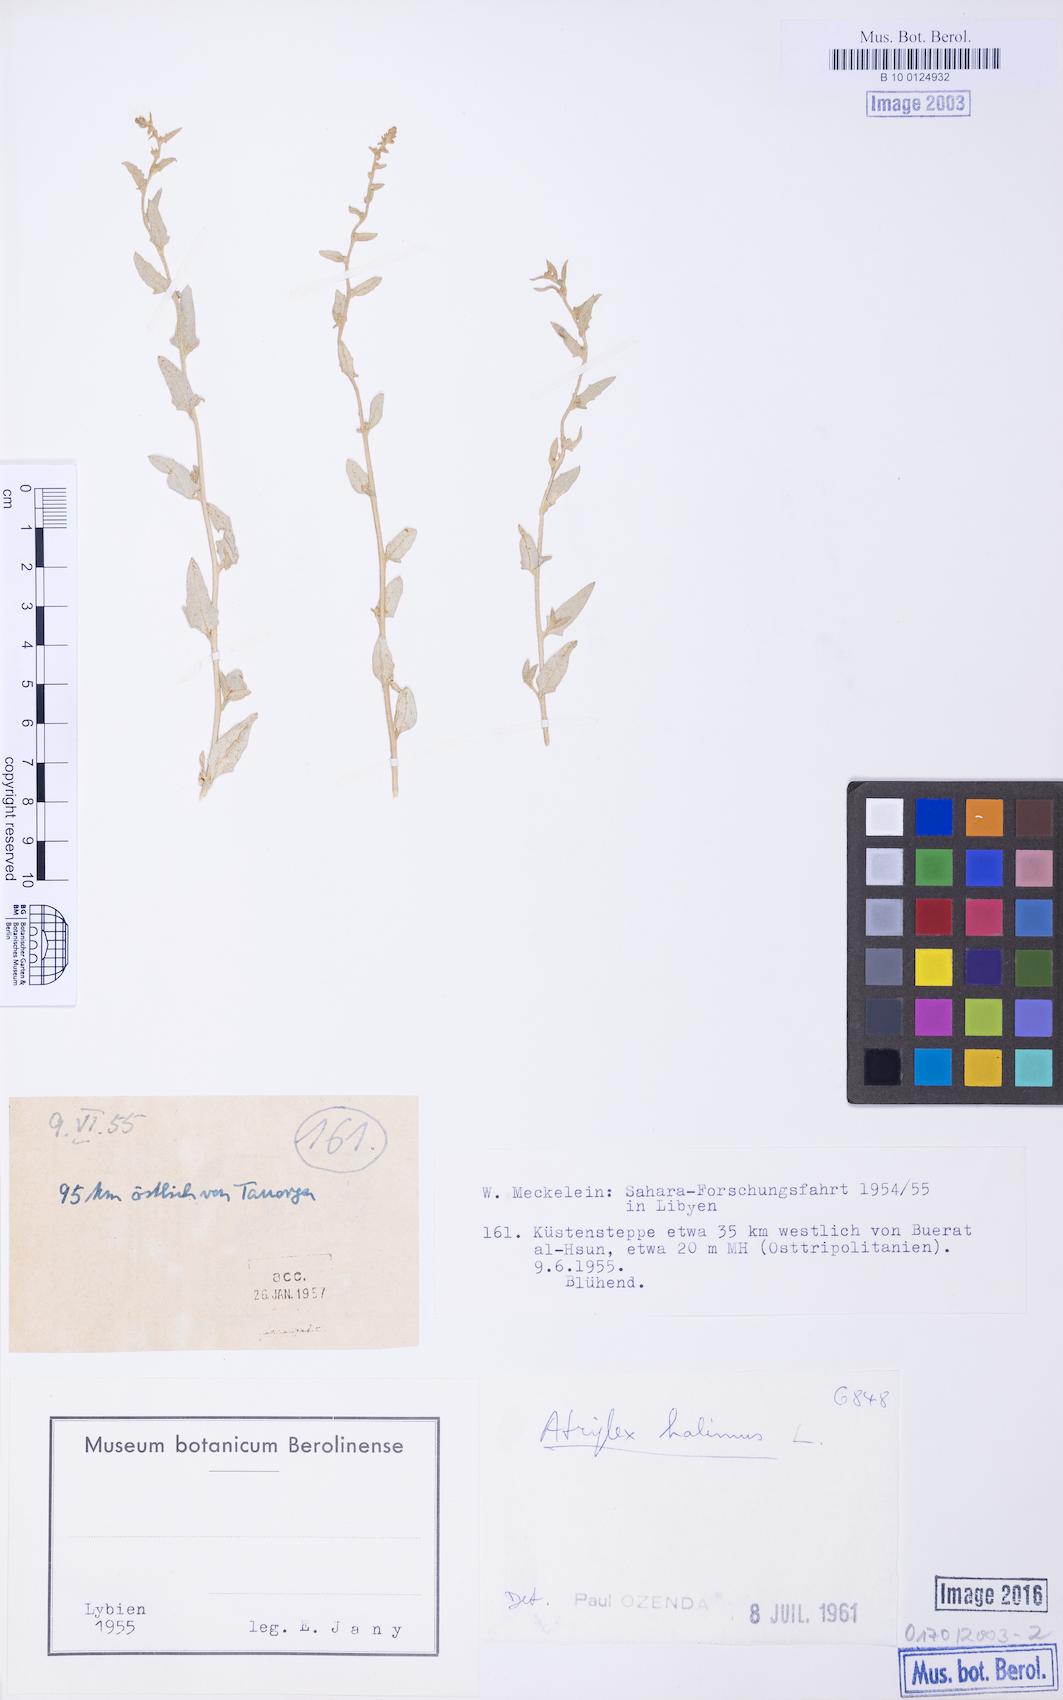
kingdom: Plantae
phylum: Tracheophyta
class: Magnoliopsida
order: Caryophyllales
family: Amaranthaceae
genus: Atriplex
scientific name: Atriplex halimus
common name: Shrubby orache
